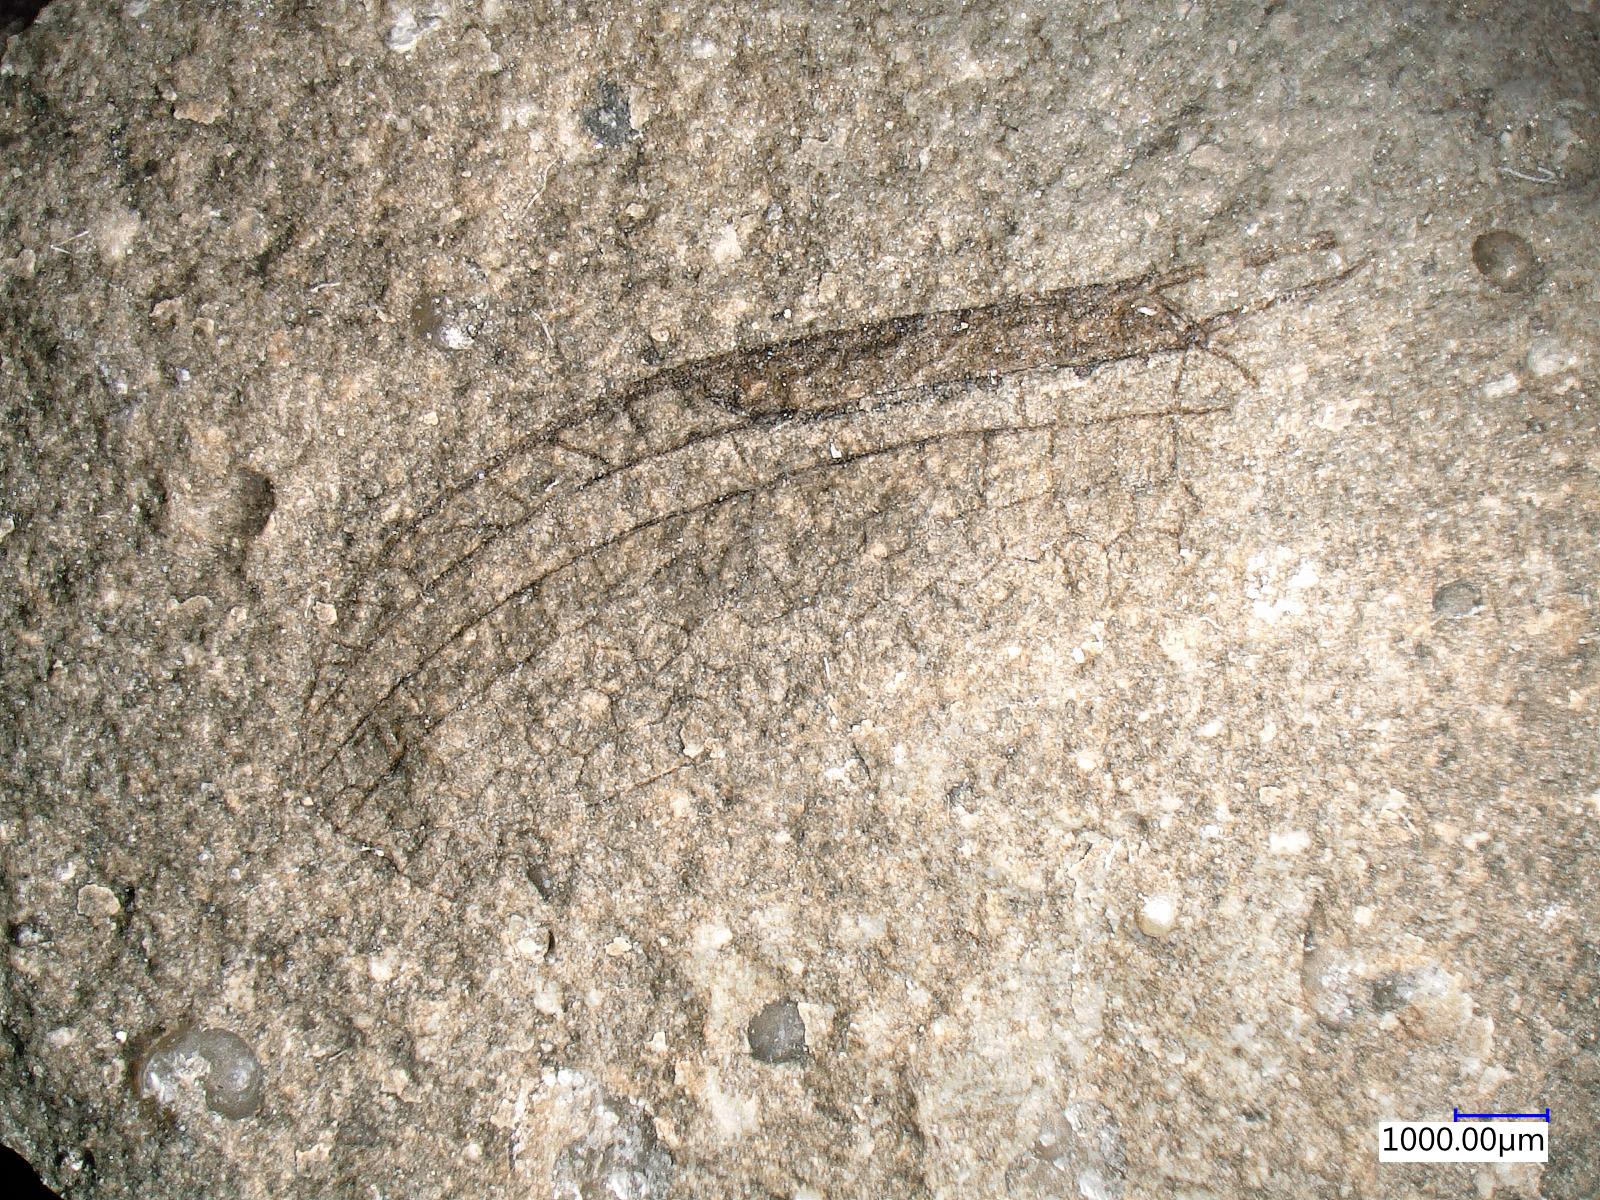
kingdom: Animalia
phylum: Arthropoda
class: Insecta
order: Odonata
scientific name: Odonata
